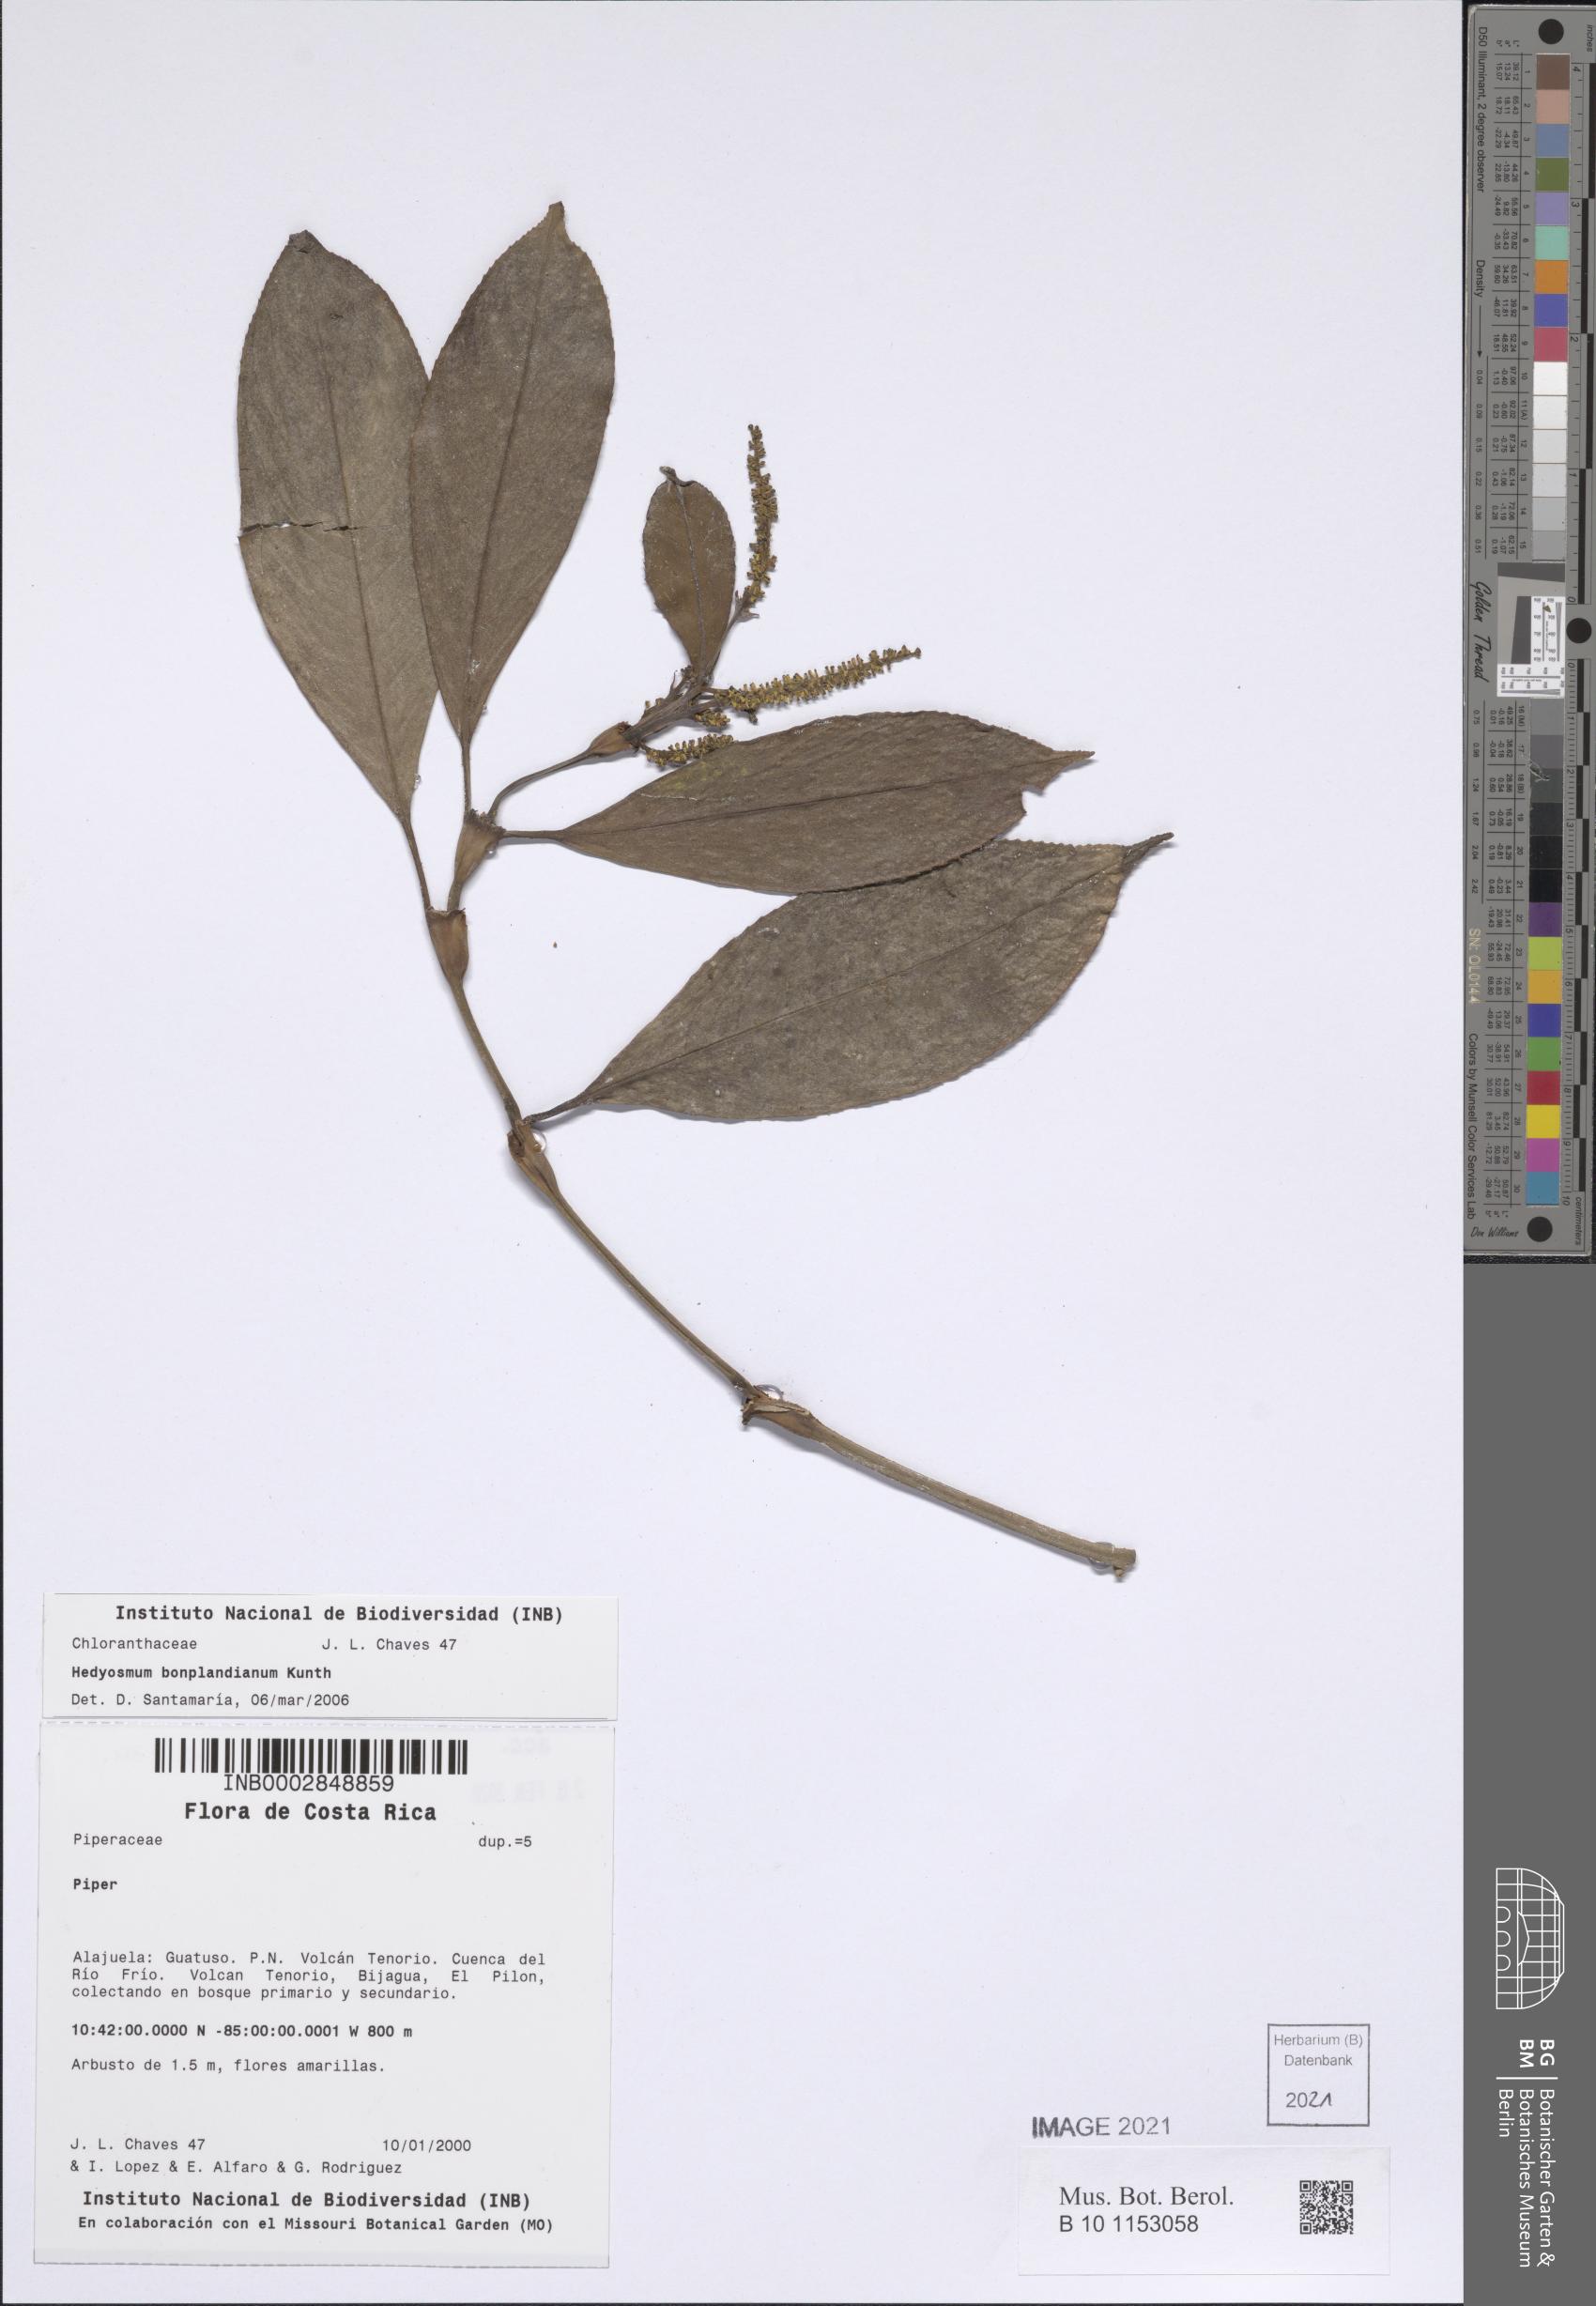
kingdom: Plantae
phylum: Tracheophyta
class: Magnoliopsida
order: Chloranthales
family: Chloranthaceae
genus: Hedyosmum
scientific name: Hedyosmum bonplandianum
